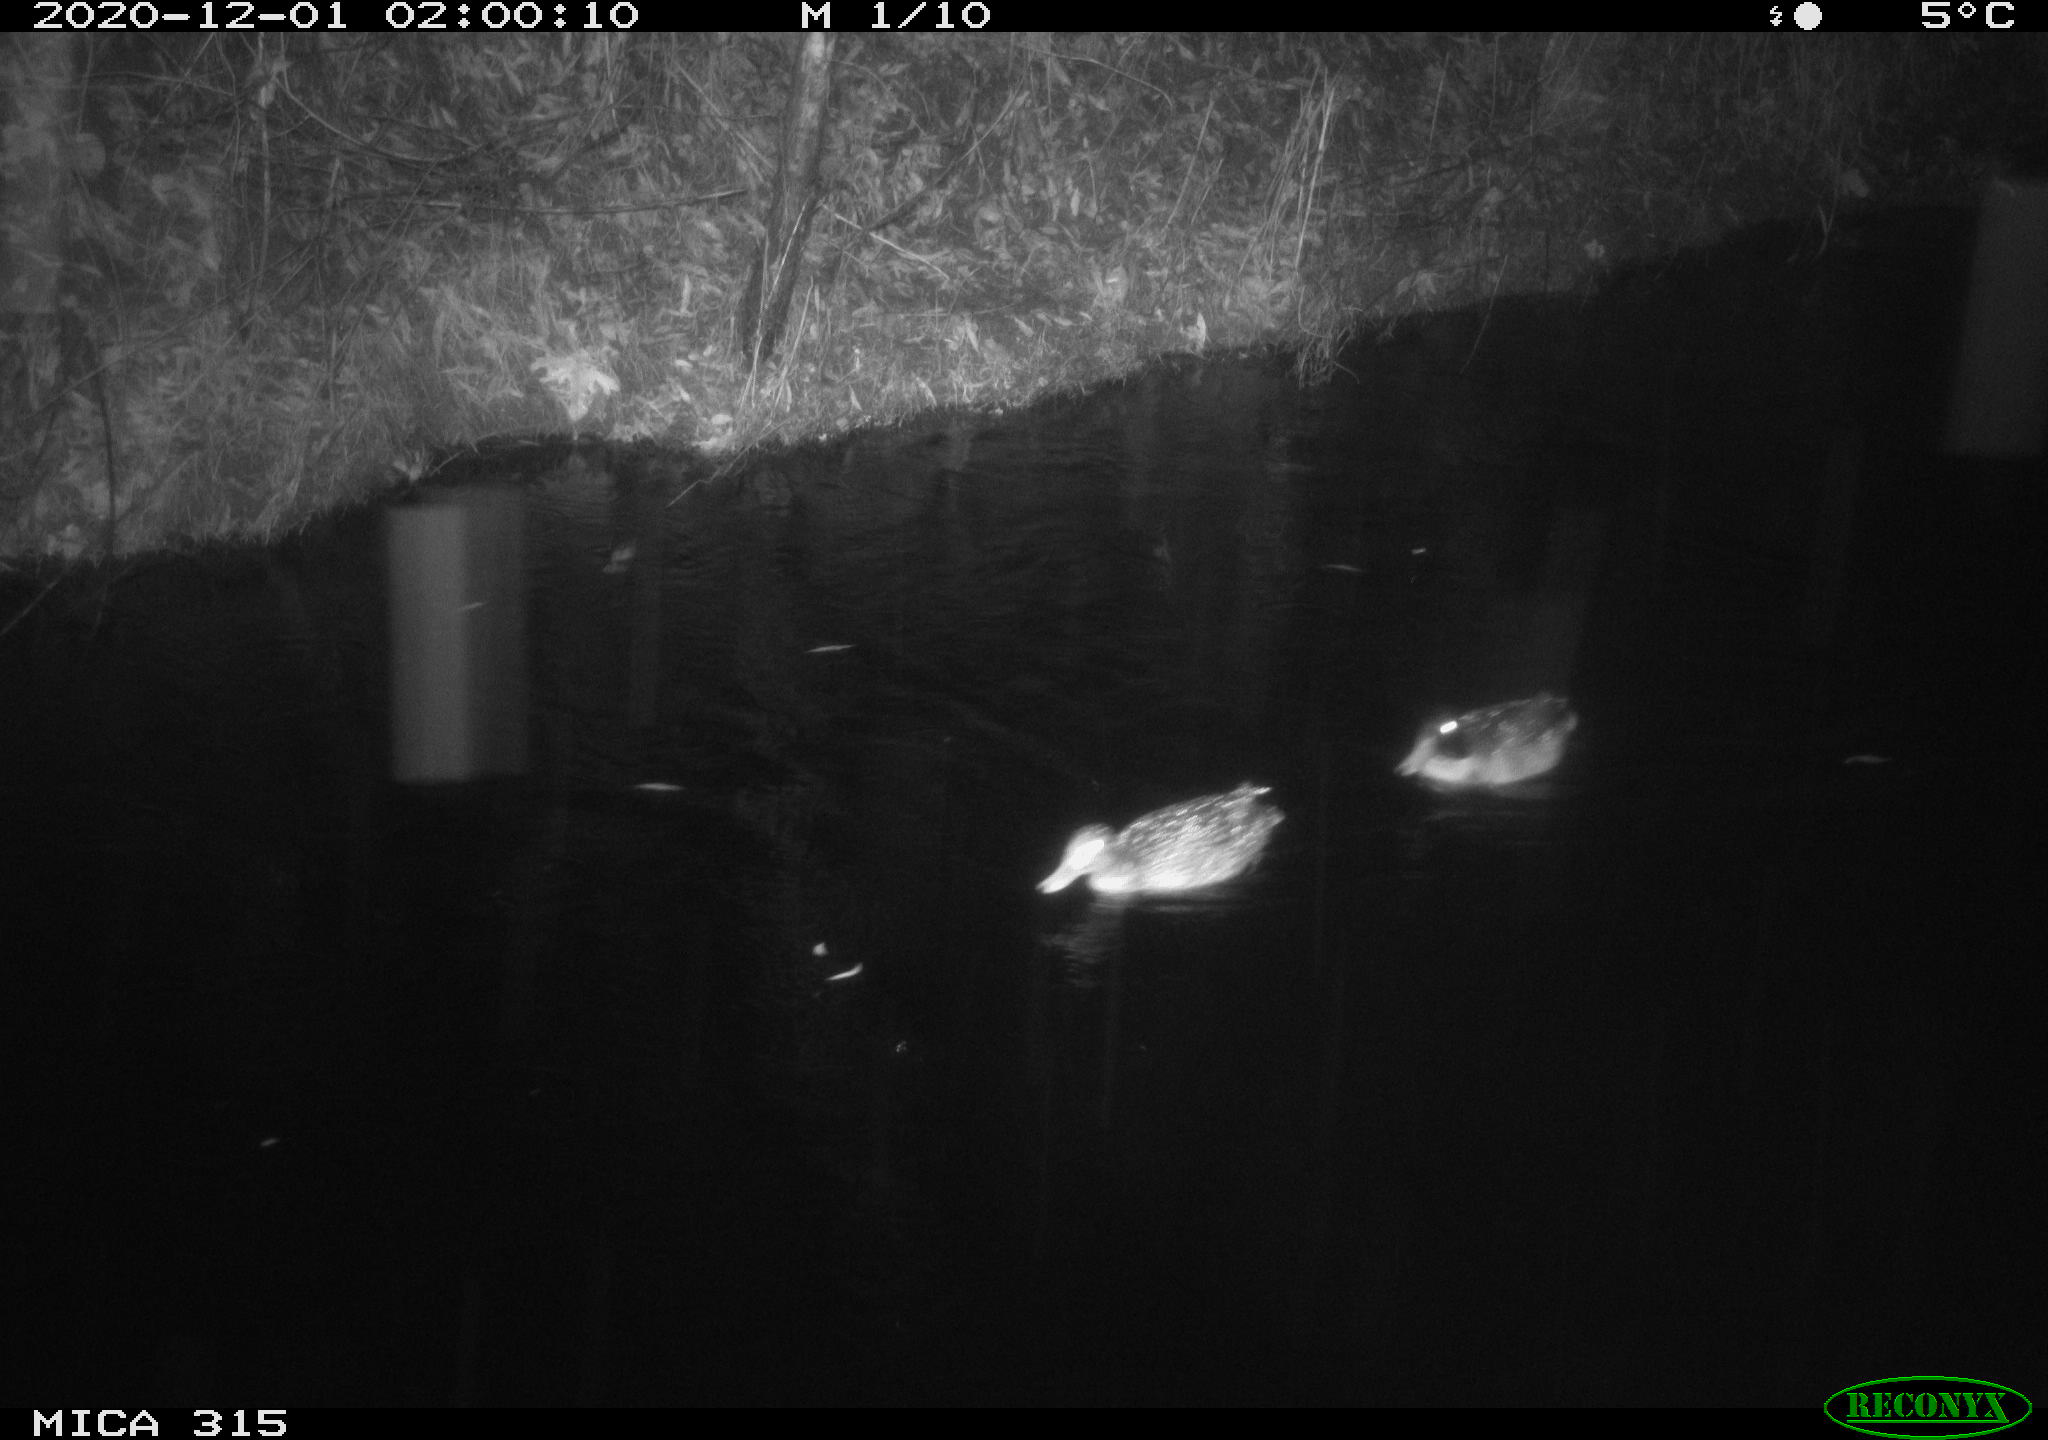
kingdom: Animalia
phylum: Chordata
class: Aves
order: Anseriformes
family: Anatidae
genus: Anas
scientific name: Anas platyrhynchos
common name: Mallard
